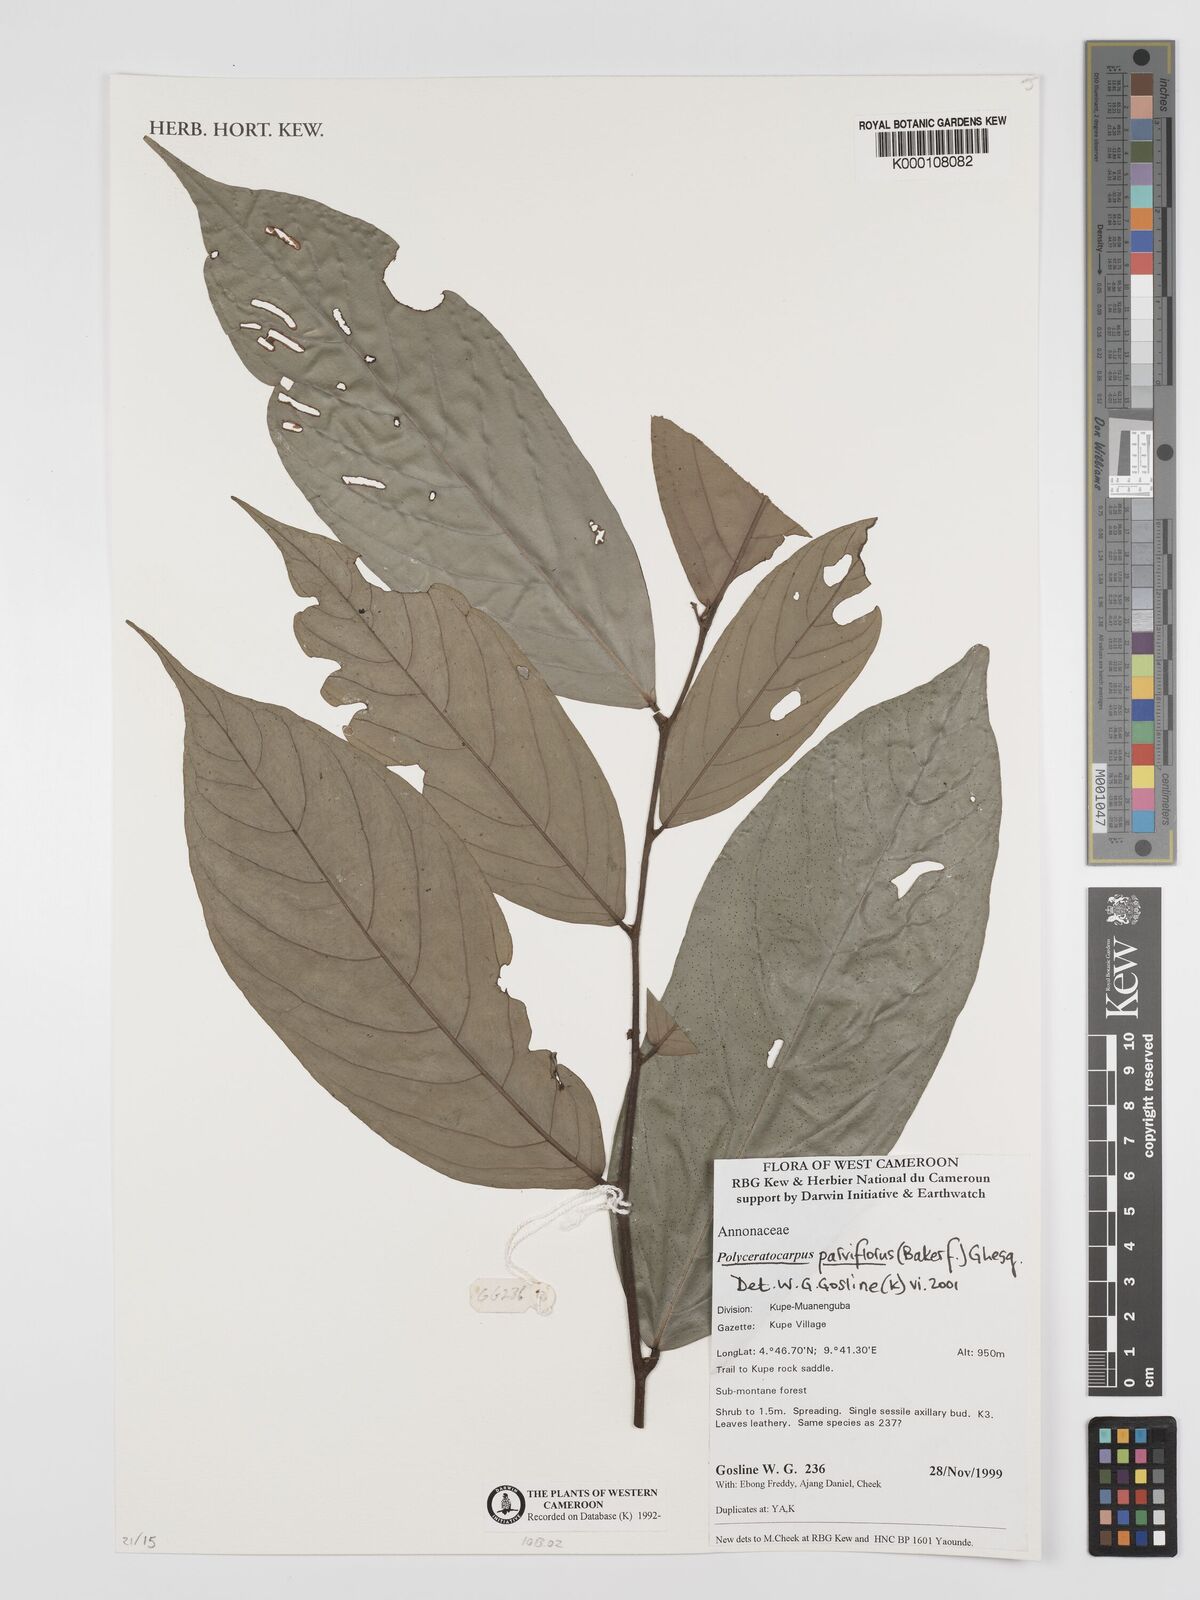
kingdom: Plantae
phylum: Tracheophyta
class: Magnoliopsida
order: Magnoliales
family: Annonaceae
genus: Polyceratocarpus
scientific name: Polyceratocarpus parviflorus
